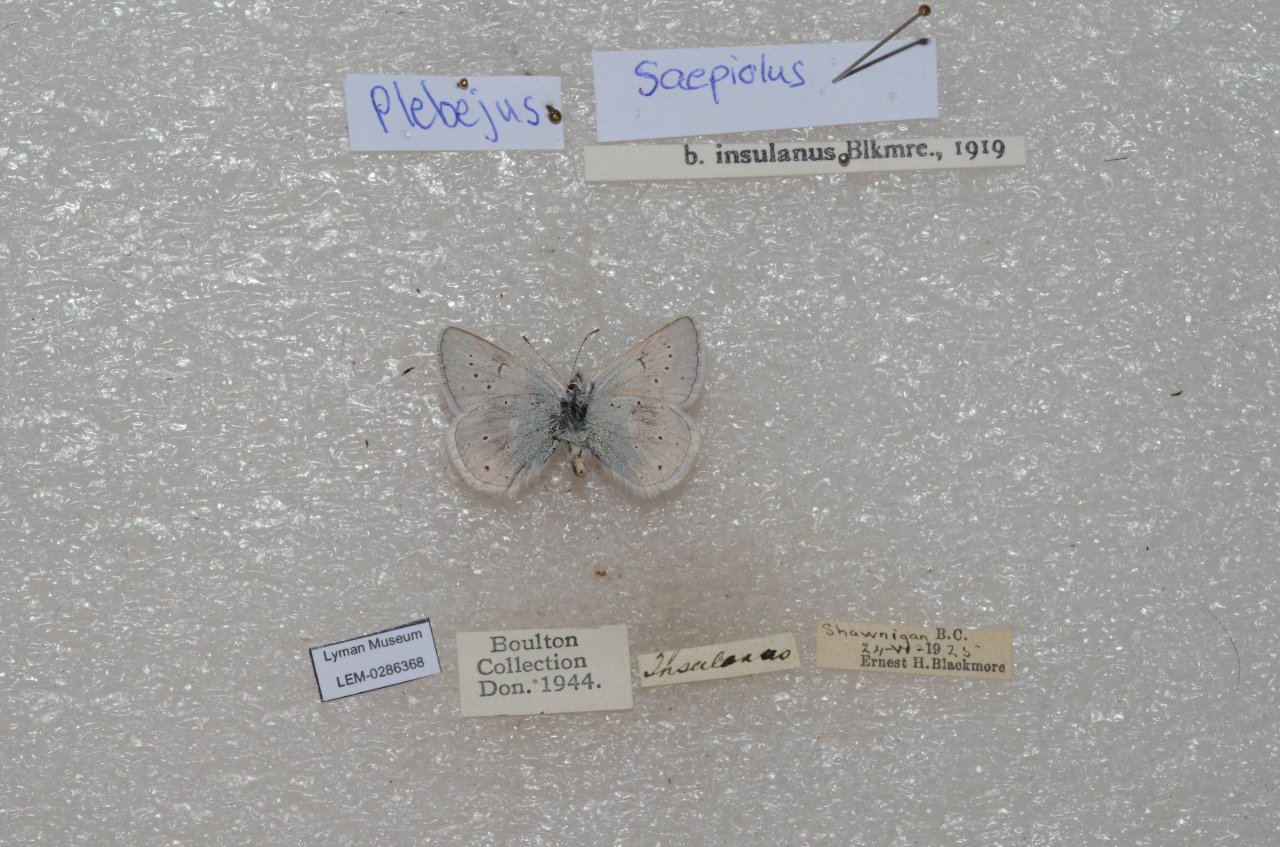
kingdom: Animalia
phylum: Arthropoda
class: Insecta
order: Lepidoptera
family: Lycaenidae
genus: Plebejus
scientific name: Plebejus saepiolus
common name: Greenish Blue
